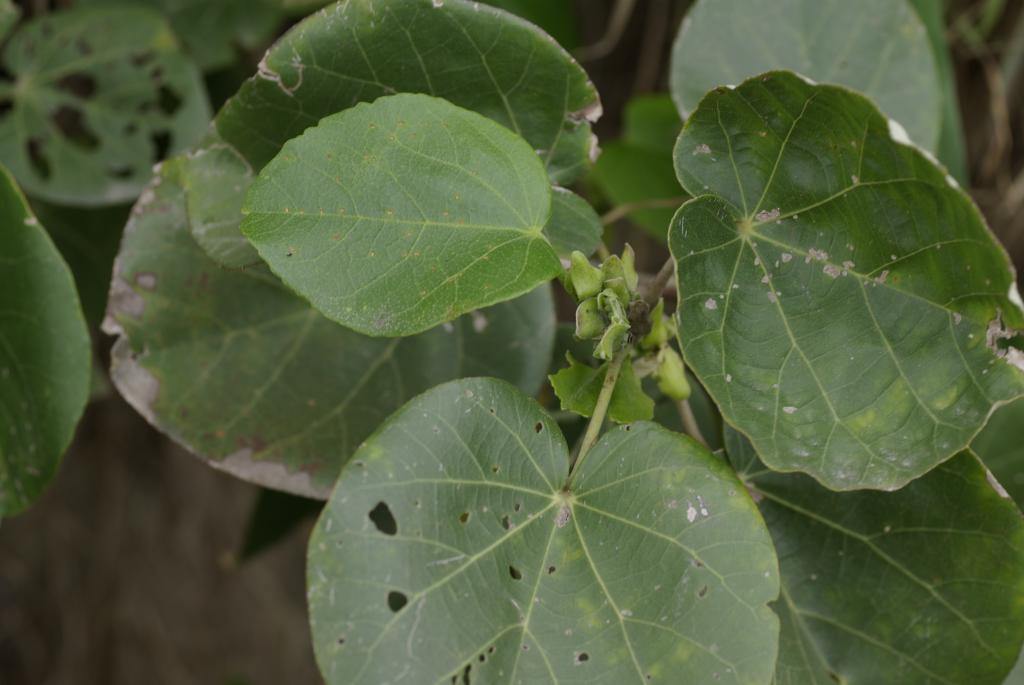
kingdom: Plantae
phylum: Tracheophyta
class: Magnoliopsida
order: Malvales
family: Malvaceae
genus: Talipariti
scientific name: Talipariti tiliaceum
